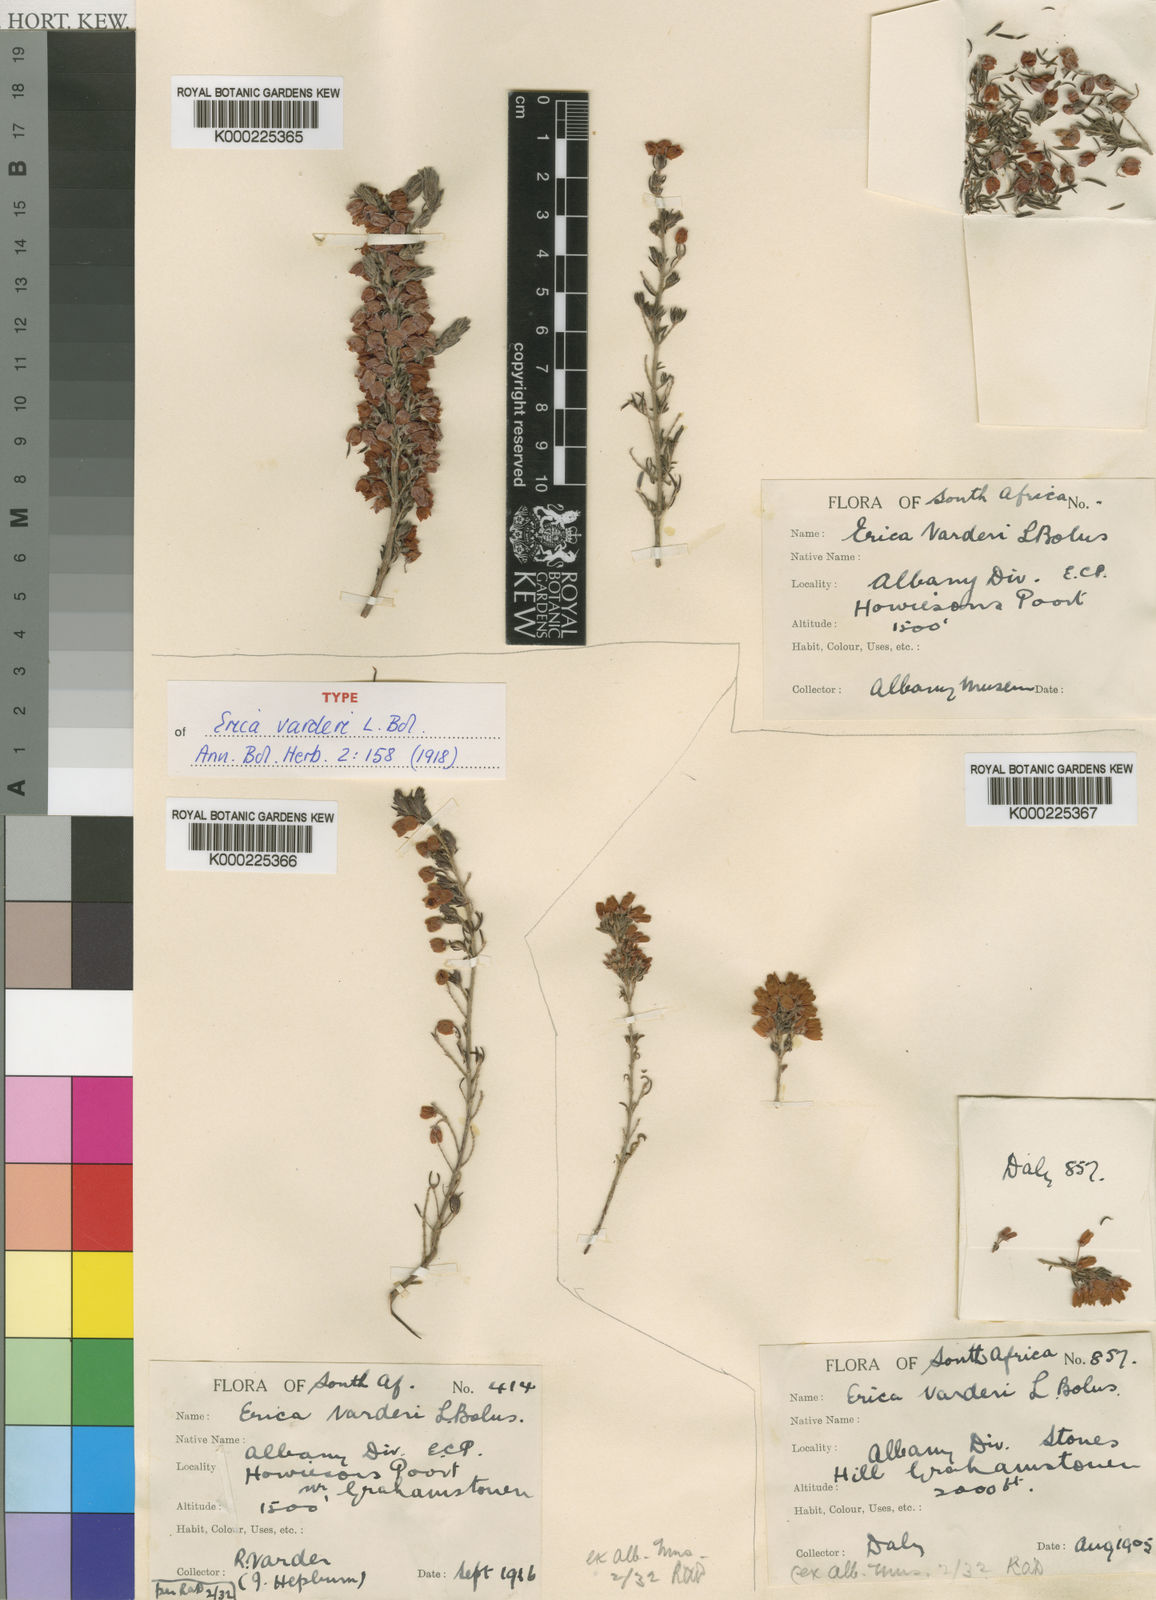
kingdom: Plantae
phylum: Tracheophyta
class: Magnoliopsida
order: Ericales
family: Ericaceae
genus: Erica
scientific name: Erica varderi
